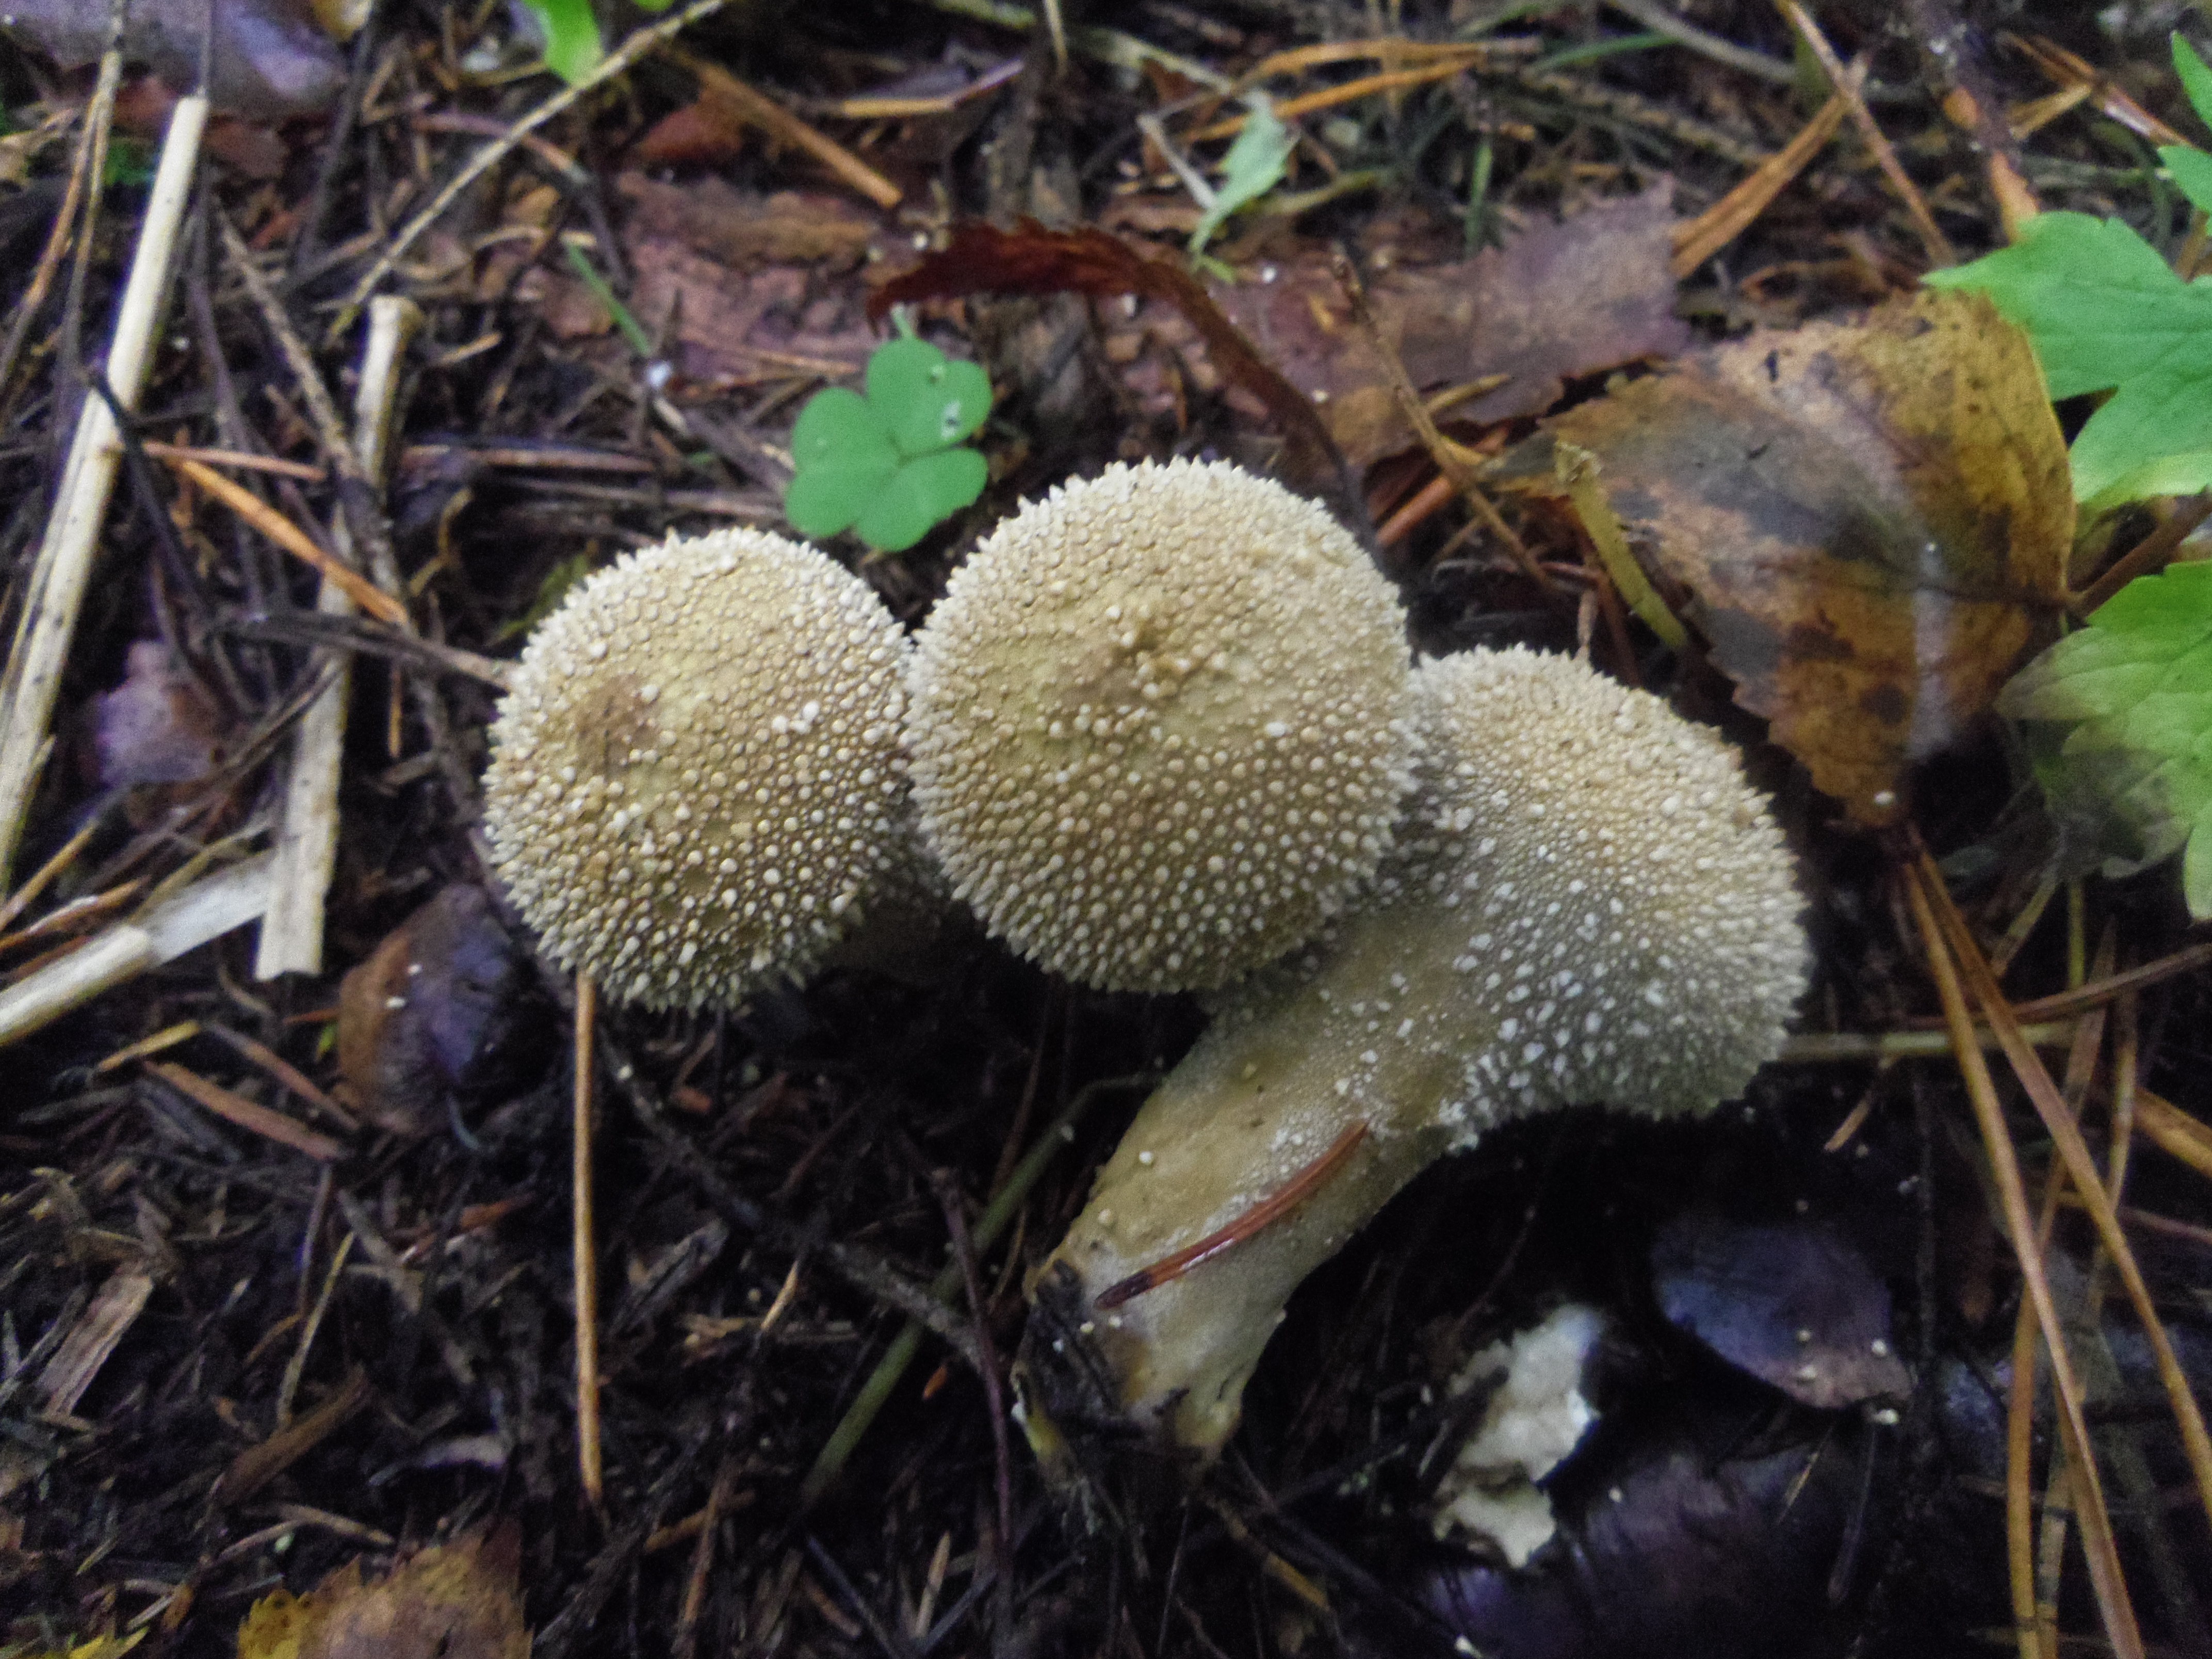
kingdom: Fungi
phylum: Basidiomycota
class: Agaricomycetes
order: Agaricales
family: Lycoperdaceae
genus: Lycoperdon
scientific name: Lycoperdon perlatum
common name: Common puffball
